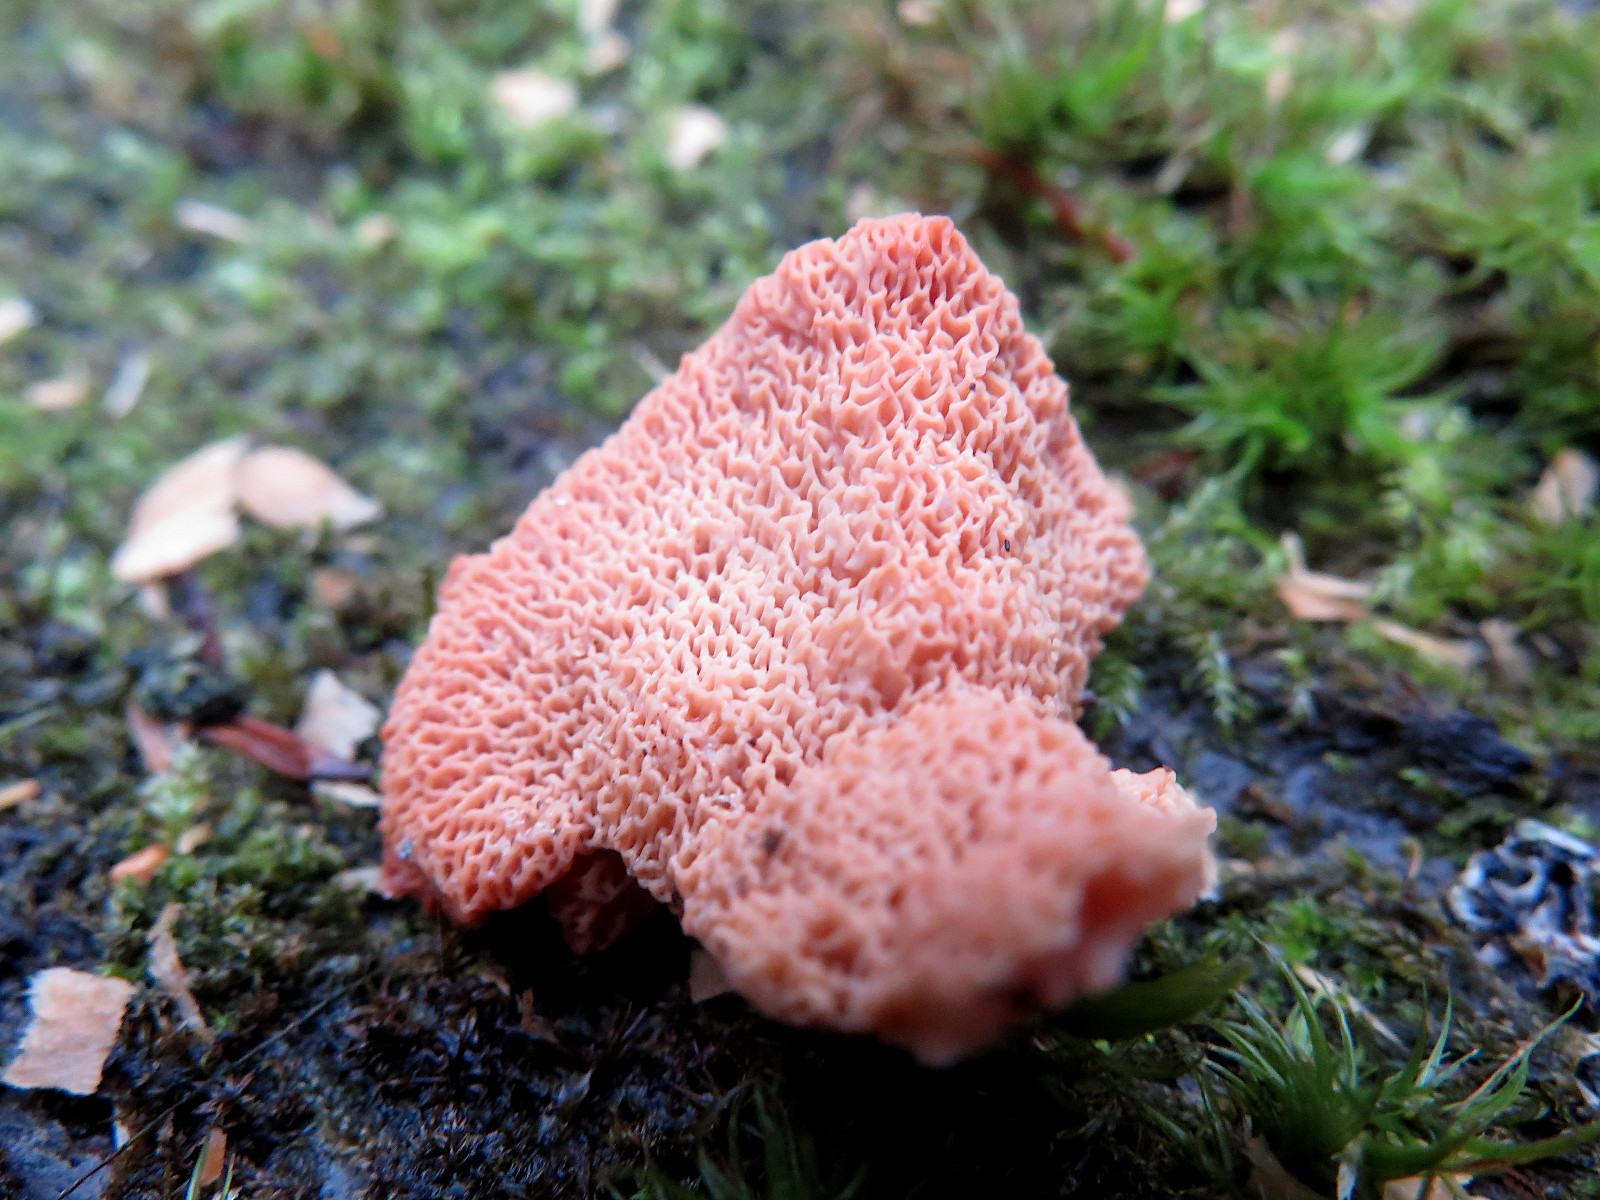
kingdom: Fungi
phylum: Basidiomycota
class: Agaricomycetes
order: Polyporales
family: Meruliaceae
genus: Phlebia
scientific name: Phlebia tremellosa
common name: bævrende åresvamp
